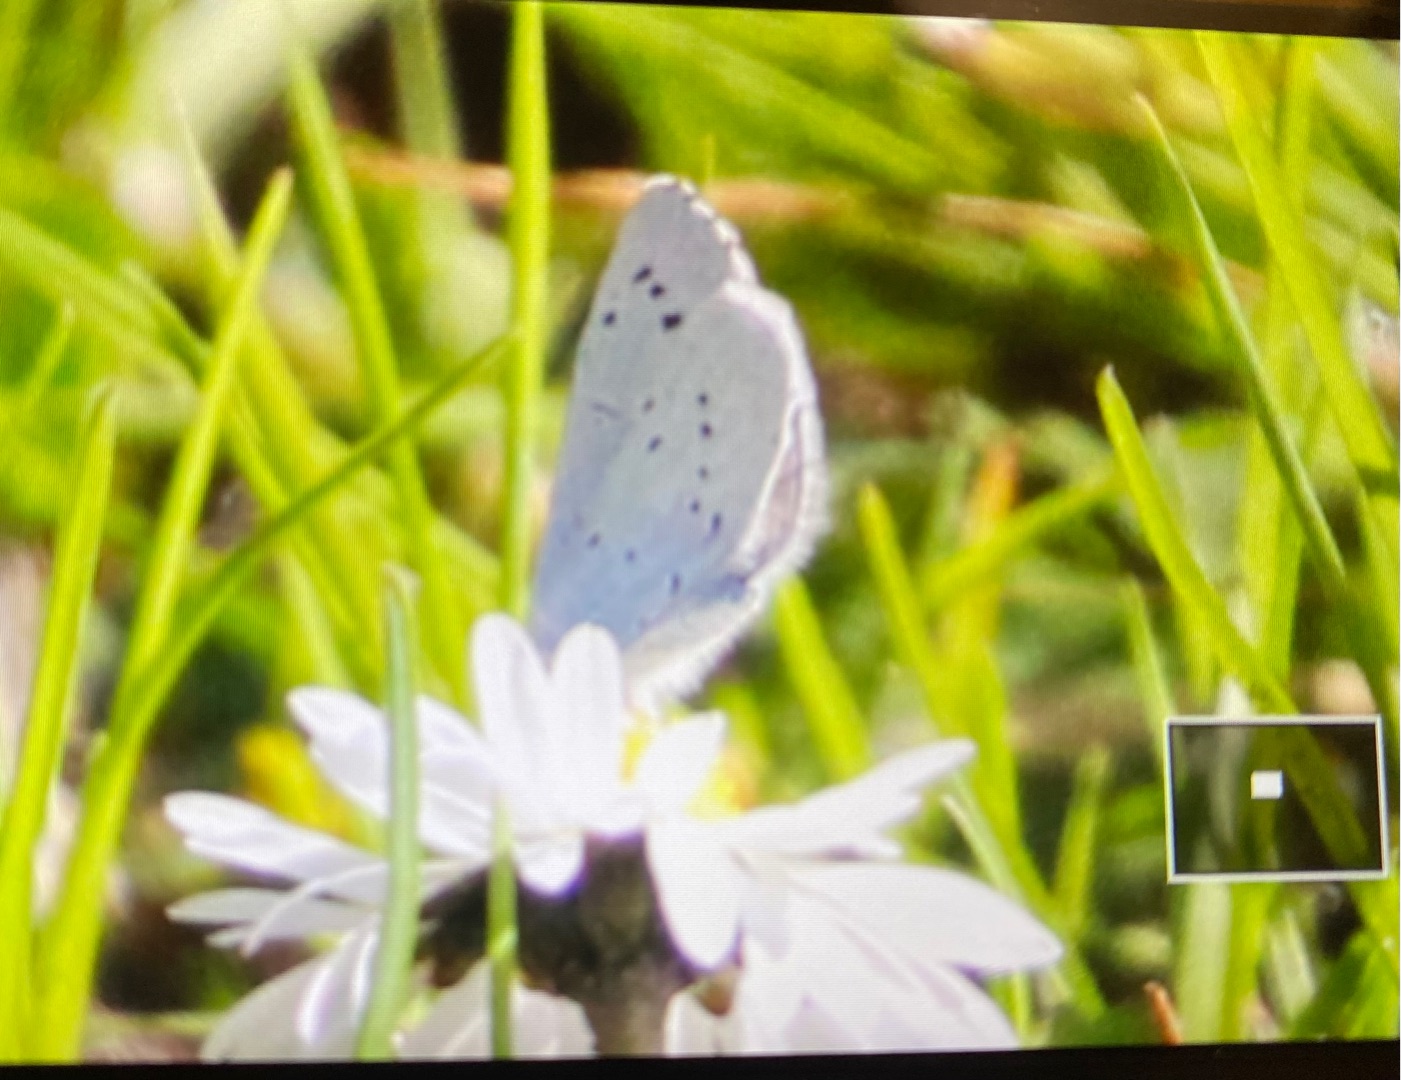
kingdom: Animalia
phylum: Arthropoda
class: Insecta
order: Lepidoptera
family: Lycaenidae
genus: Celastrina
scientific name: Celastrina argiolus
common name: Skovblåfugl
